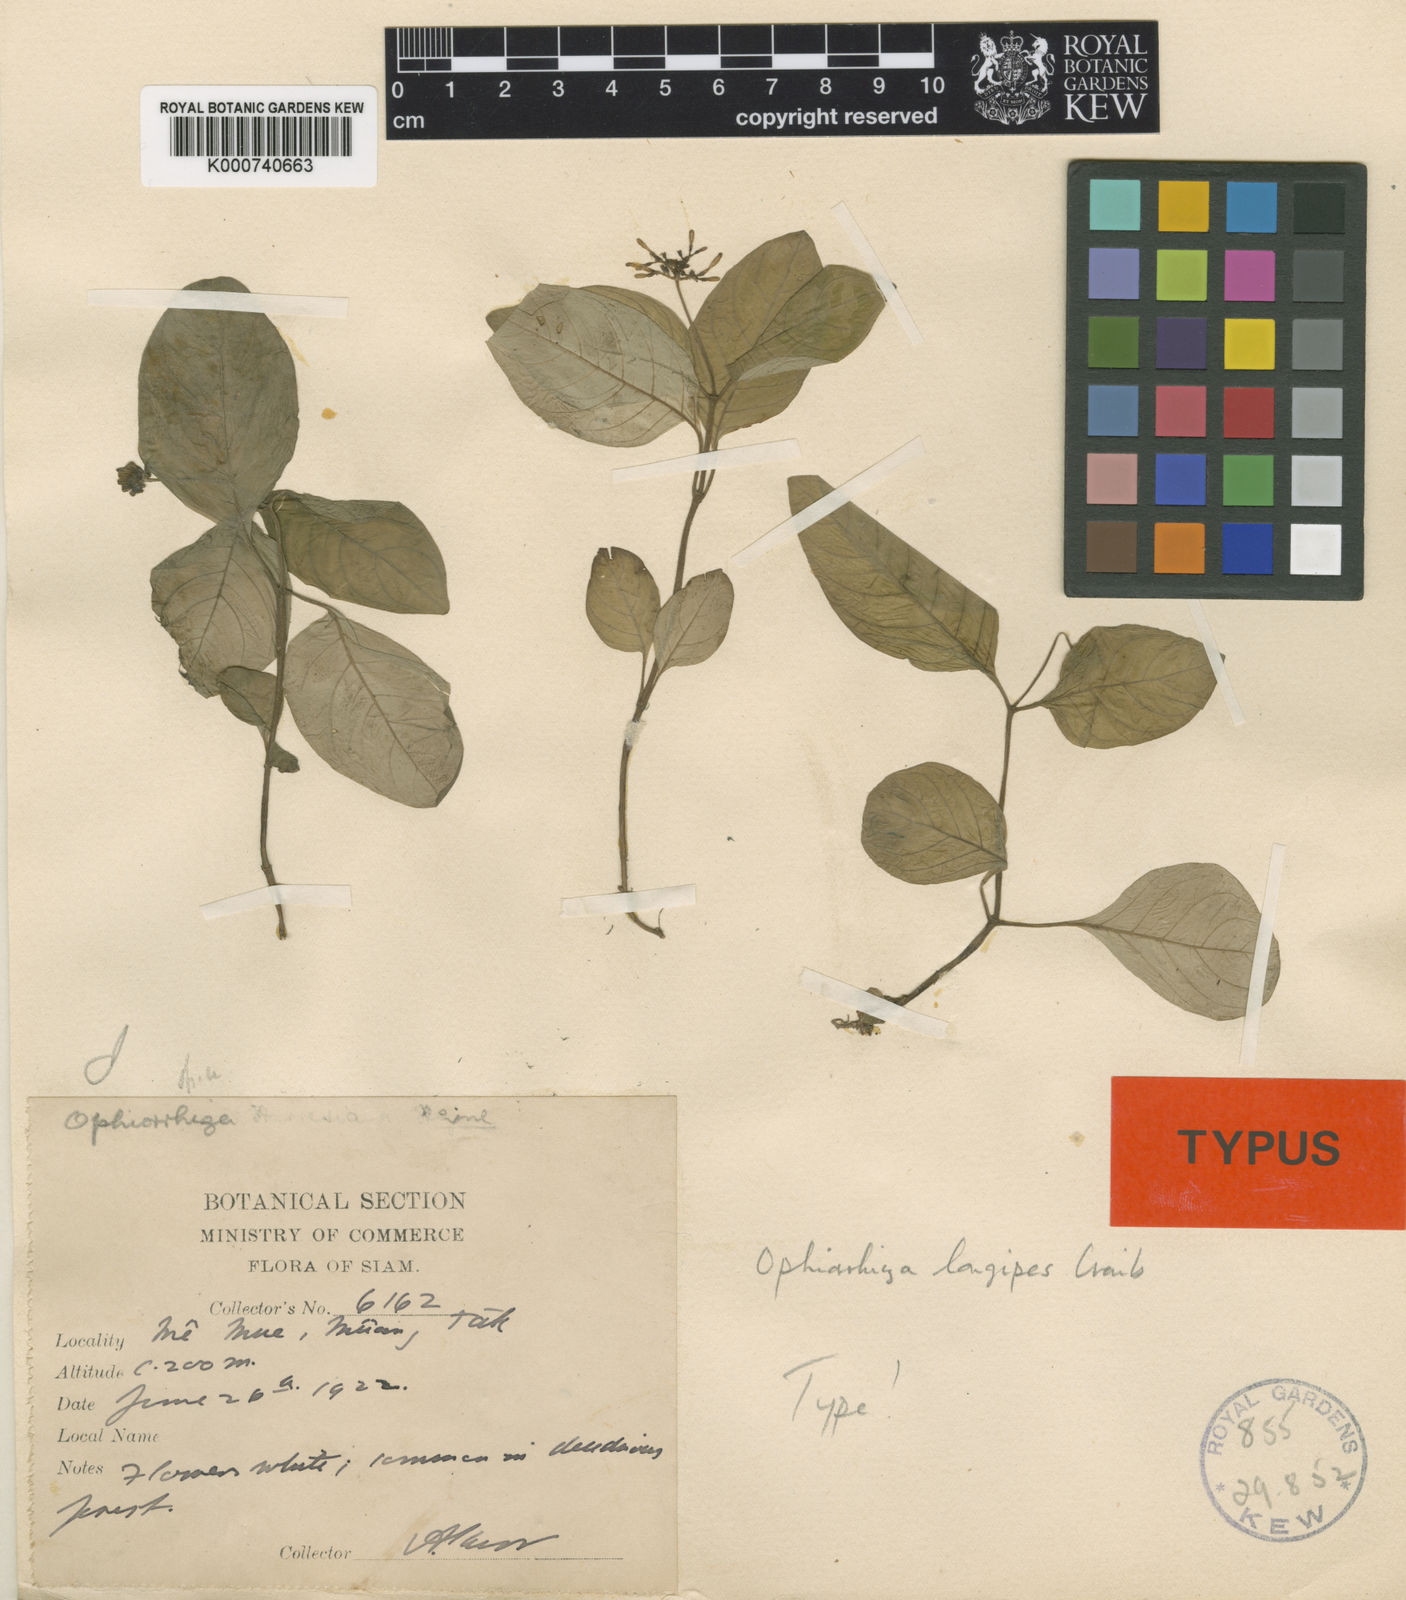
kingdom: Plantae
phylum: Tracheophyta
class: Magnoliopsida
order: Gentianales
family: Rubiaceae
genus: Ophiorrhiza
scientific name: Ophiorrhiza longipes
